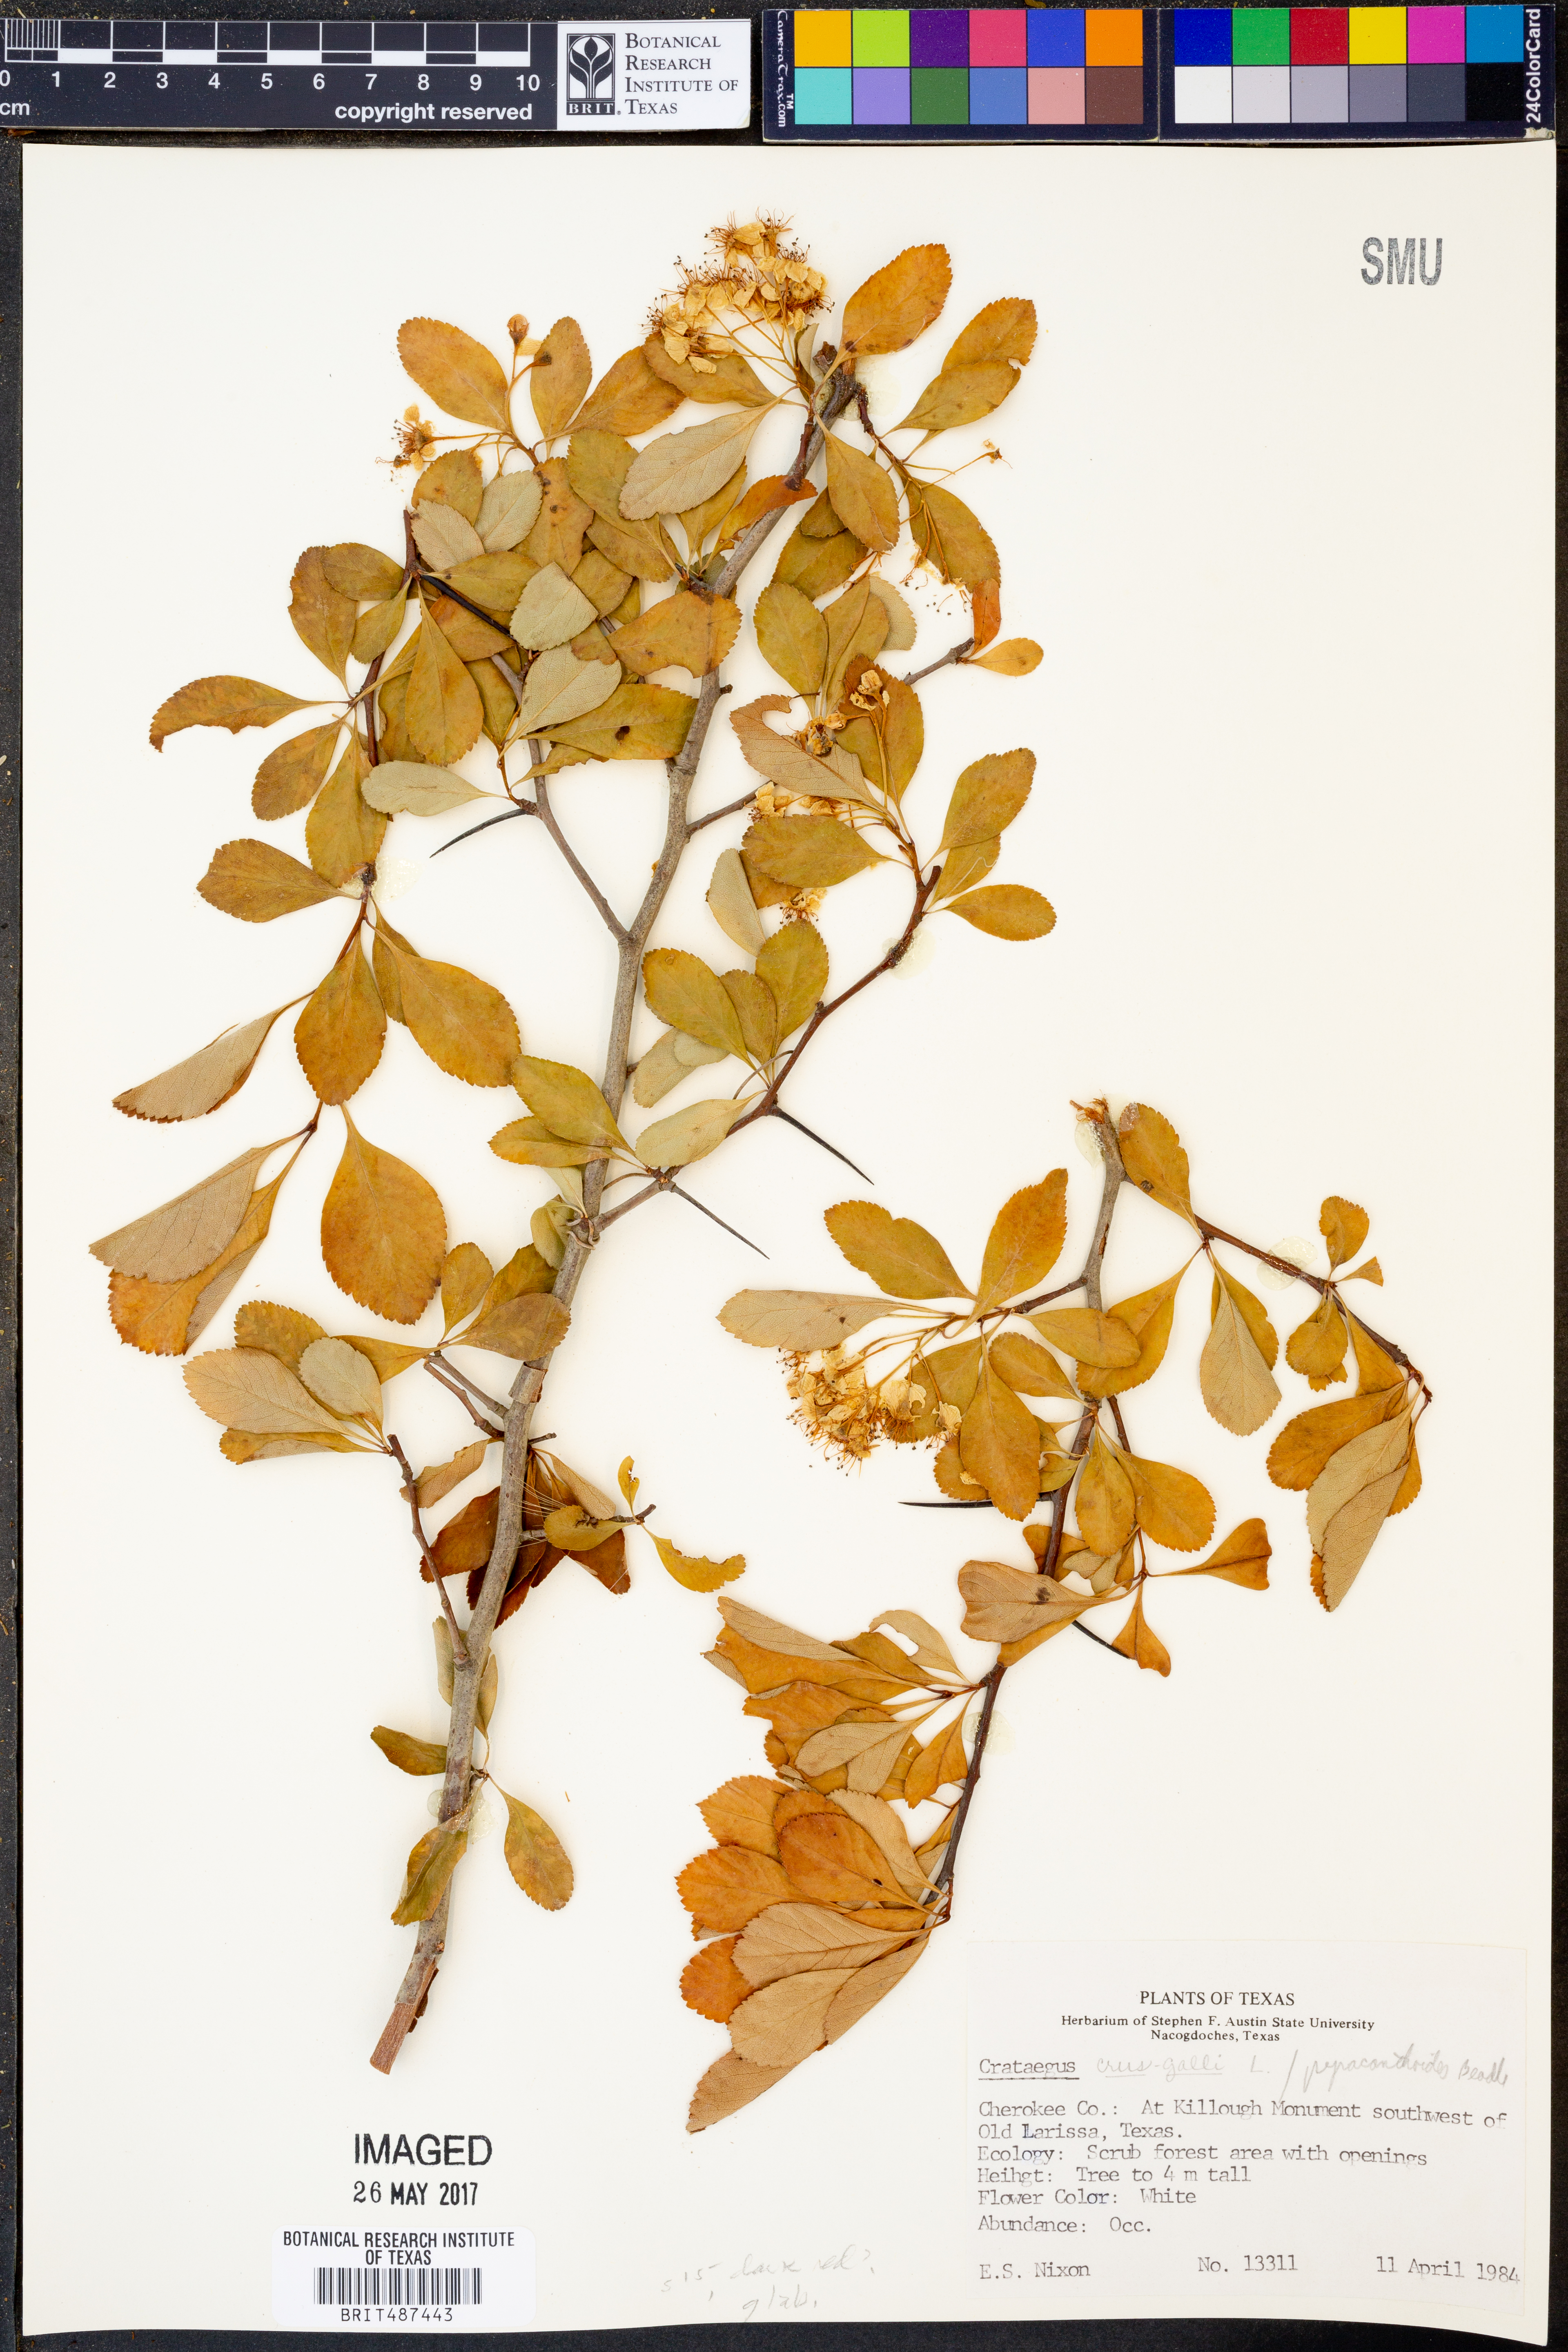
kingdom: Plantae
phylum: Tracheophyta
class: Magnoliopsida
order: Rosales
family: Rosaceae
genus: Crataegus
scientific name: Crataegus crus-galli
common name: Cockspurthorn
